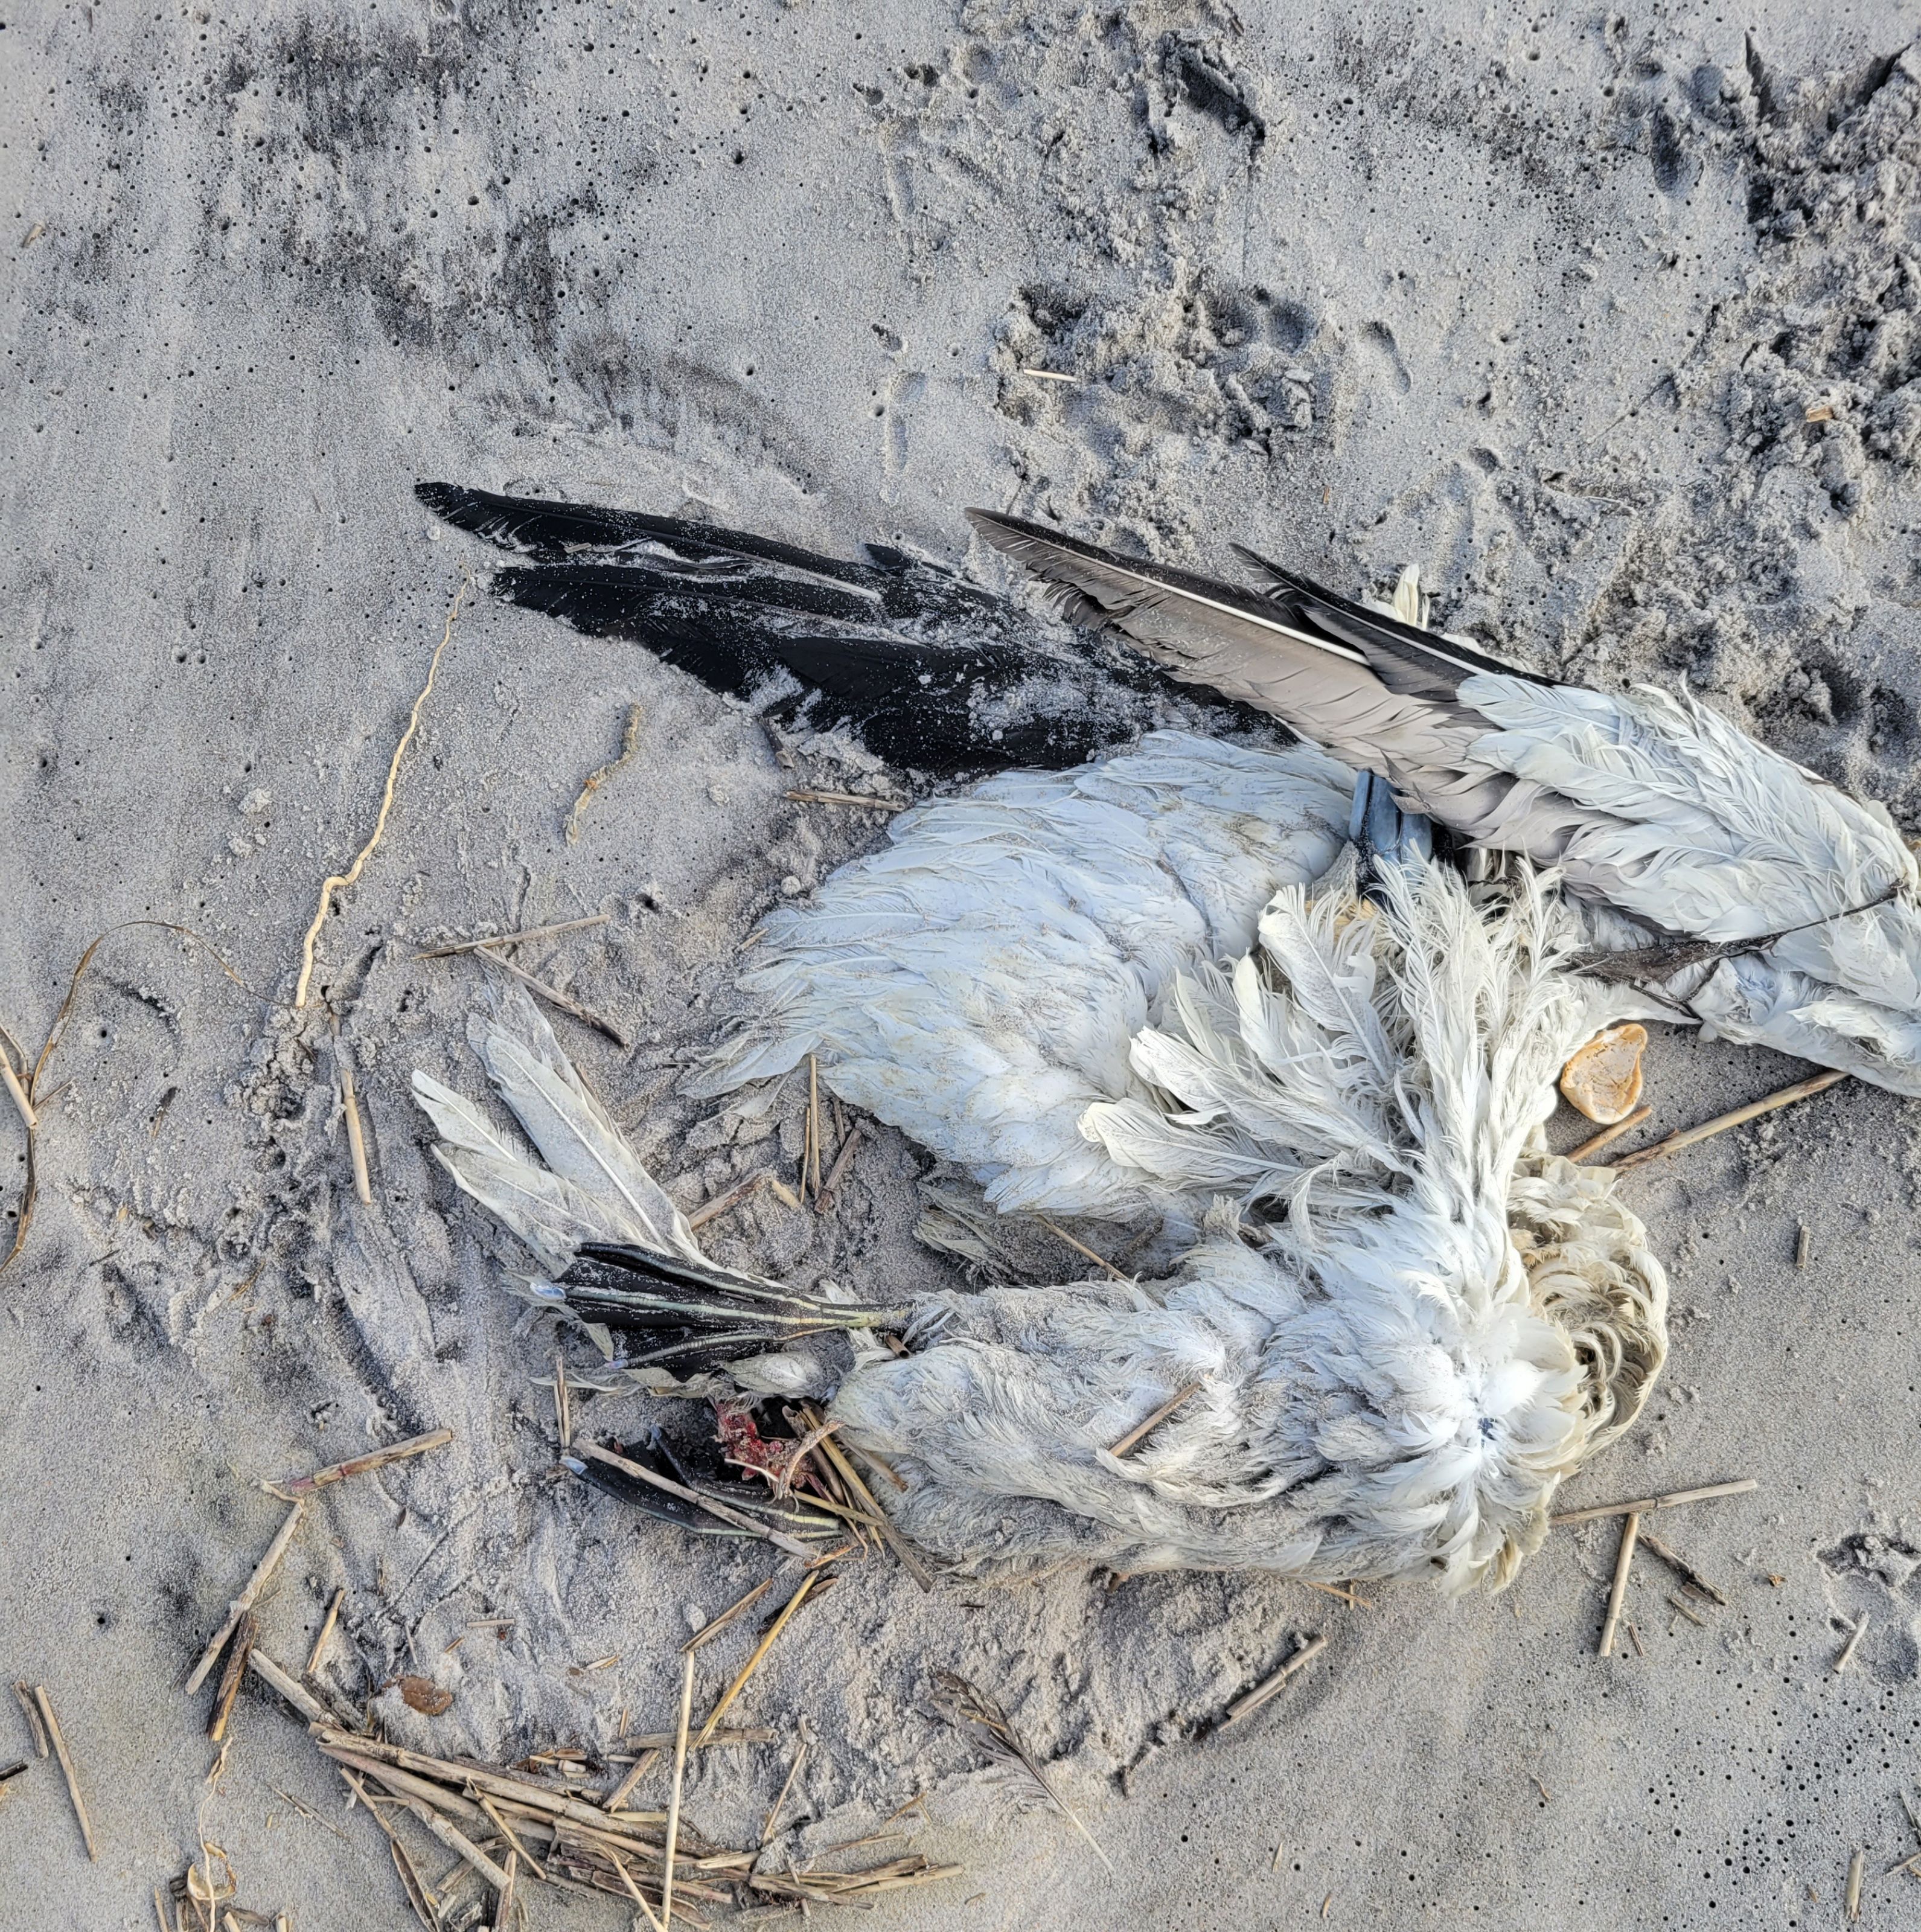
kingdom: Animalia
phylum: Chordata
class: Aves
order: Suliformes
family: Sulidae
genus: Sula
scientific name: Sula
